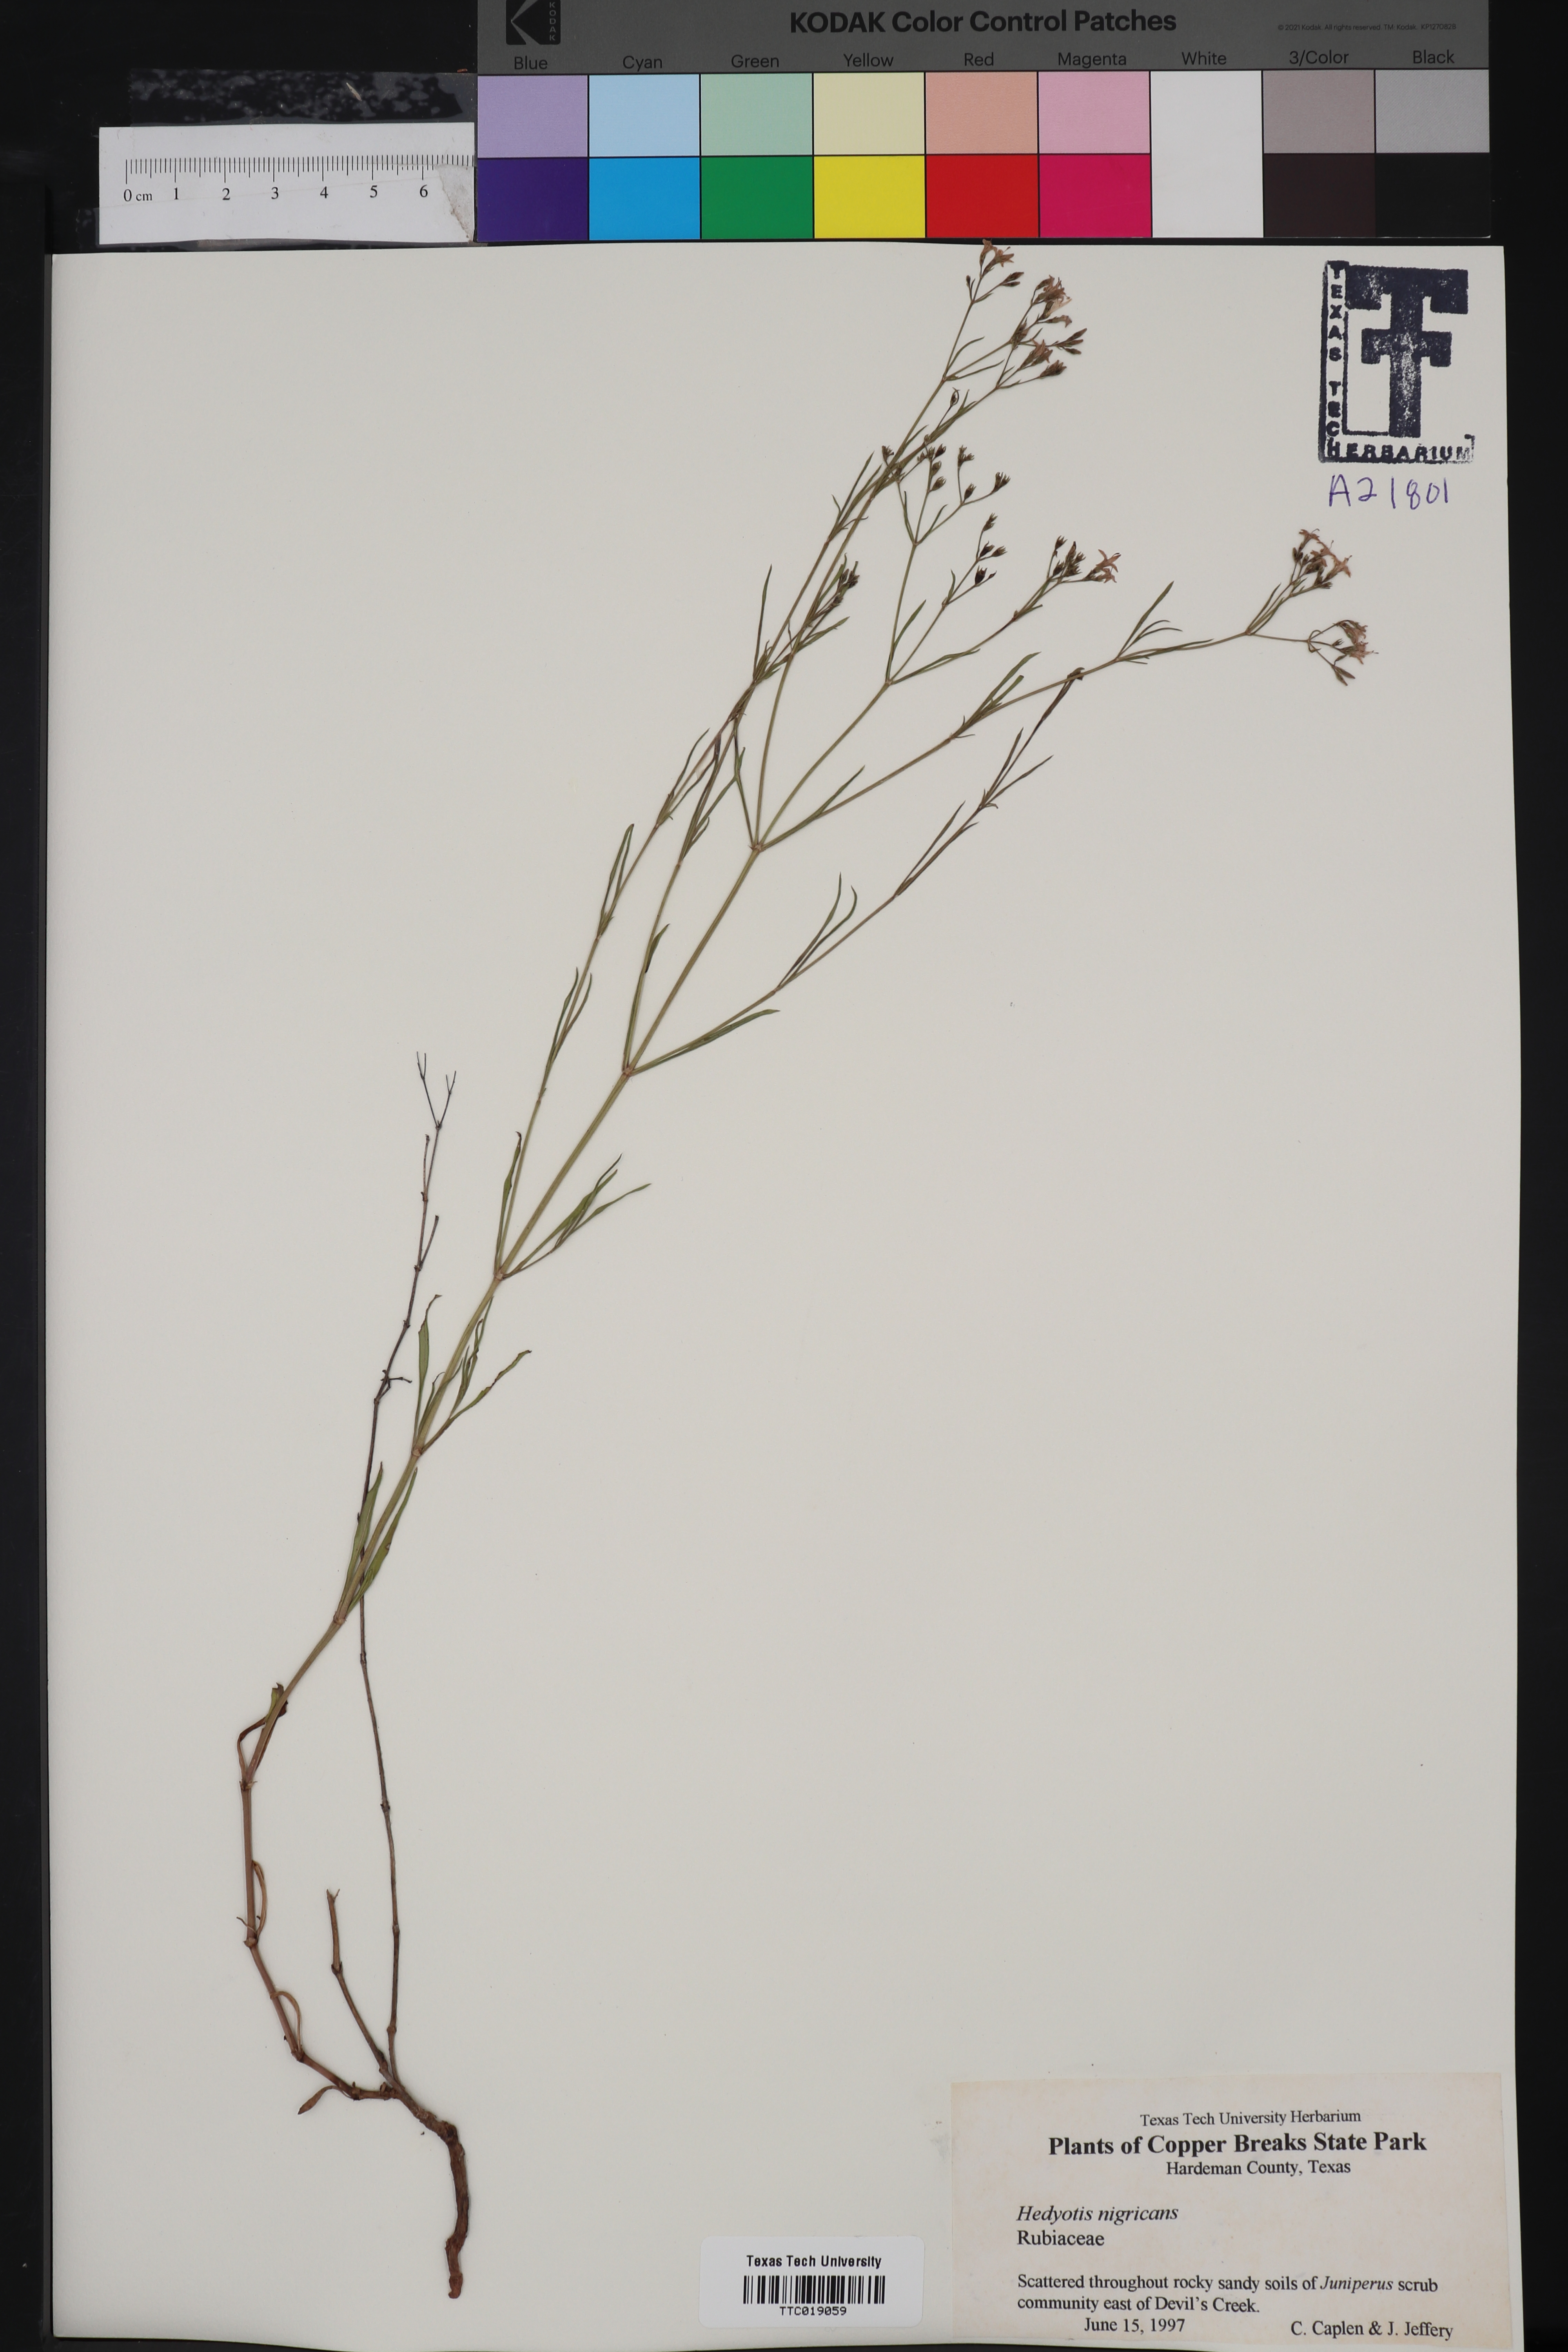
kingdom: Plantae
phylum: Tracheophyta
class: Magnoliopsida
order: Gentianales
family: Rubiaceae
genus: Stenaria
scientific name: Stenaria nigricans
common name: Diamondflowers
